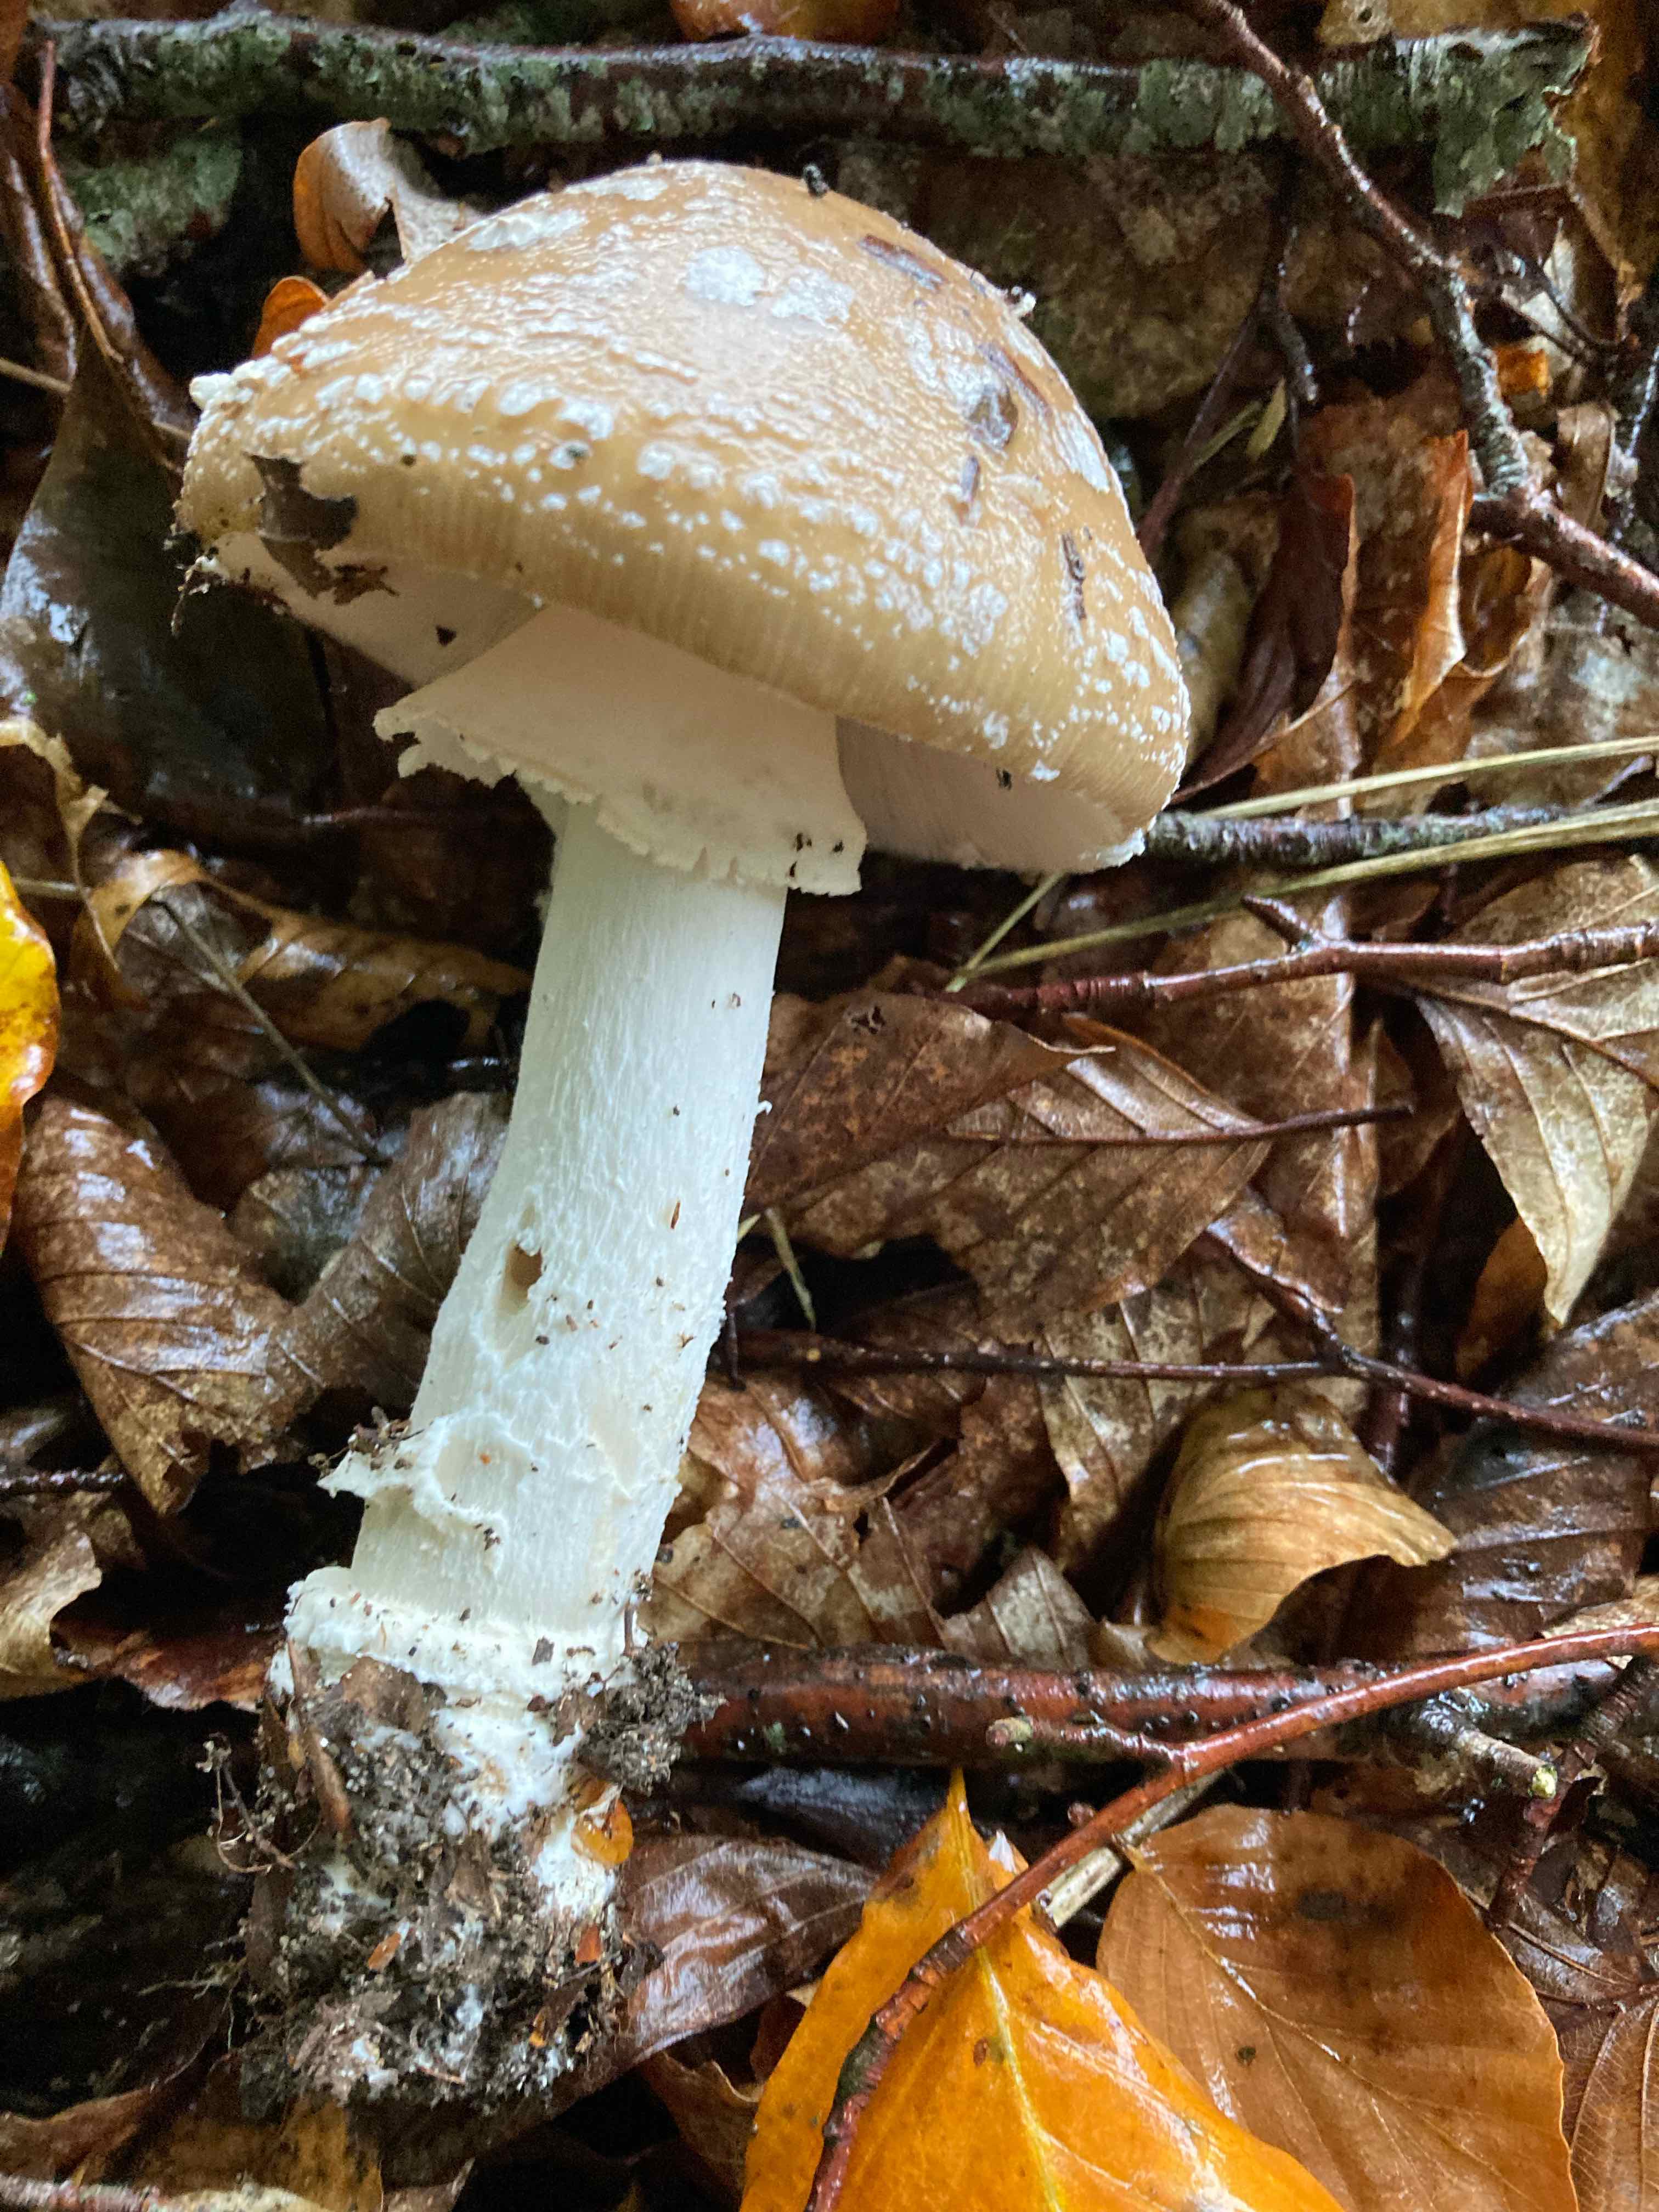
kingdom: Fungi
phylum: Basidiomycota
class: Agaricomycetes
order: Agaricales
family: Amanitaceae
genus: Amanita
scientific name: Amanita pantherina
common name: panter-fluesvamp
